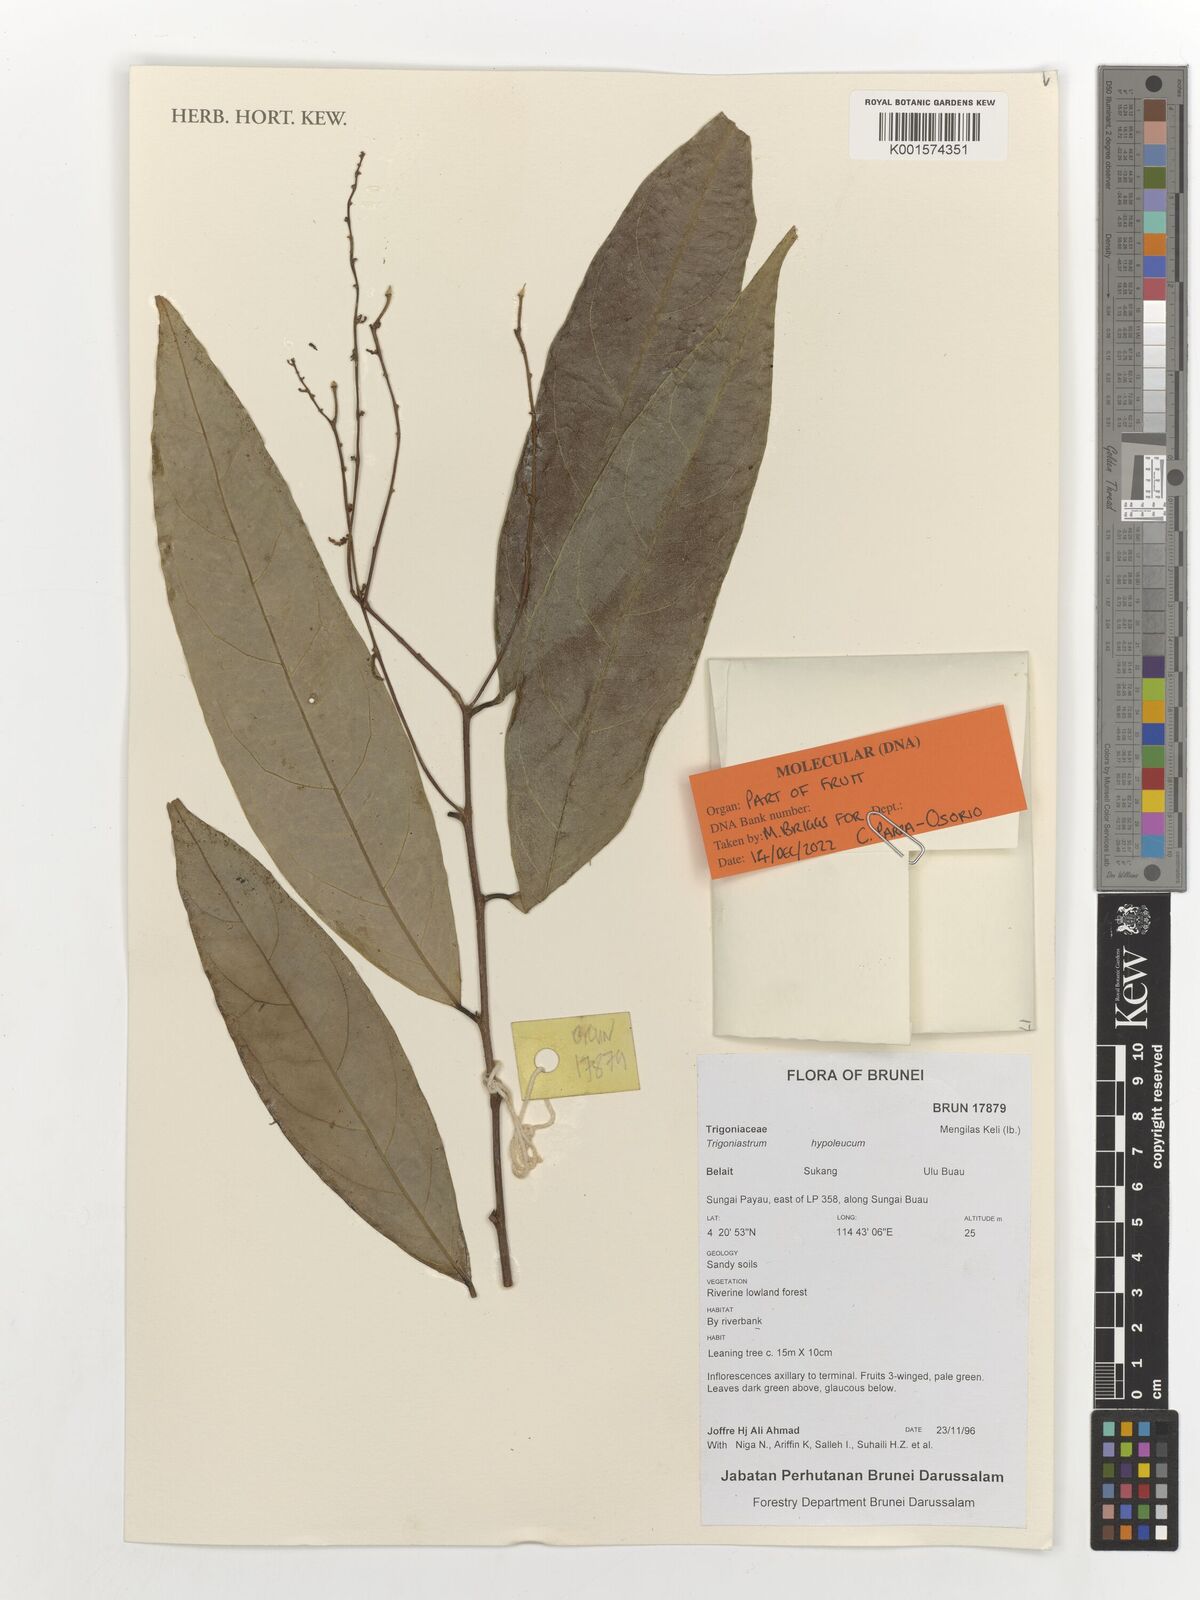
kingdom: Plantae
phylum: Tracheophyta
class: Magnoliopsida
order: Malpighiales
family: Trigoniaceae
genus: Trigoniastrum
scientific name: Trigoniastrum hypoleucum
